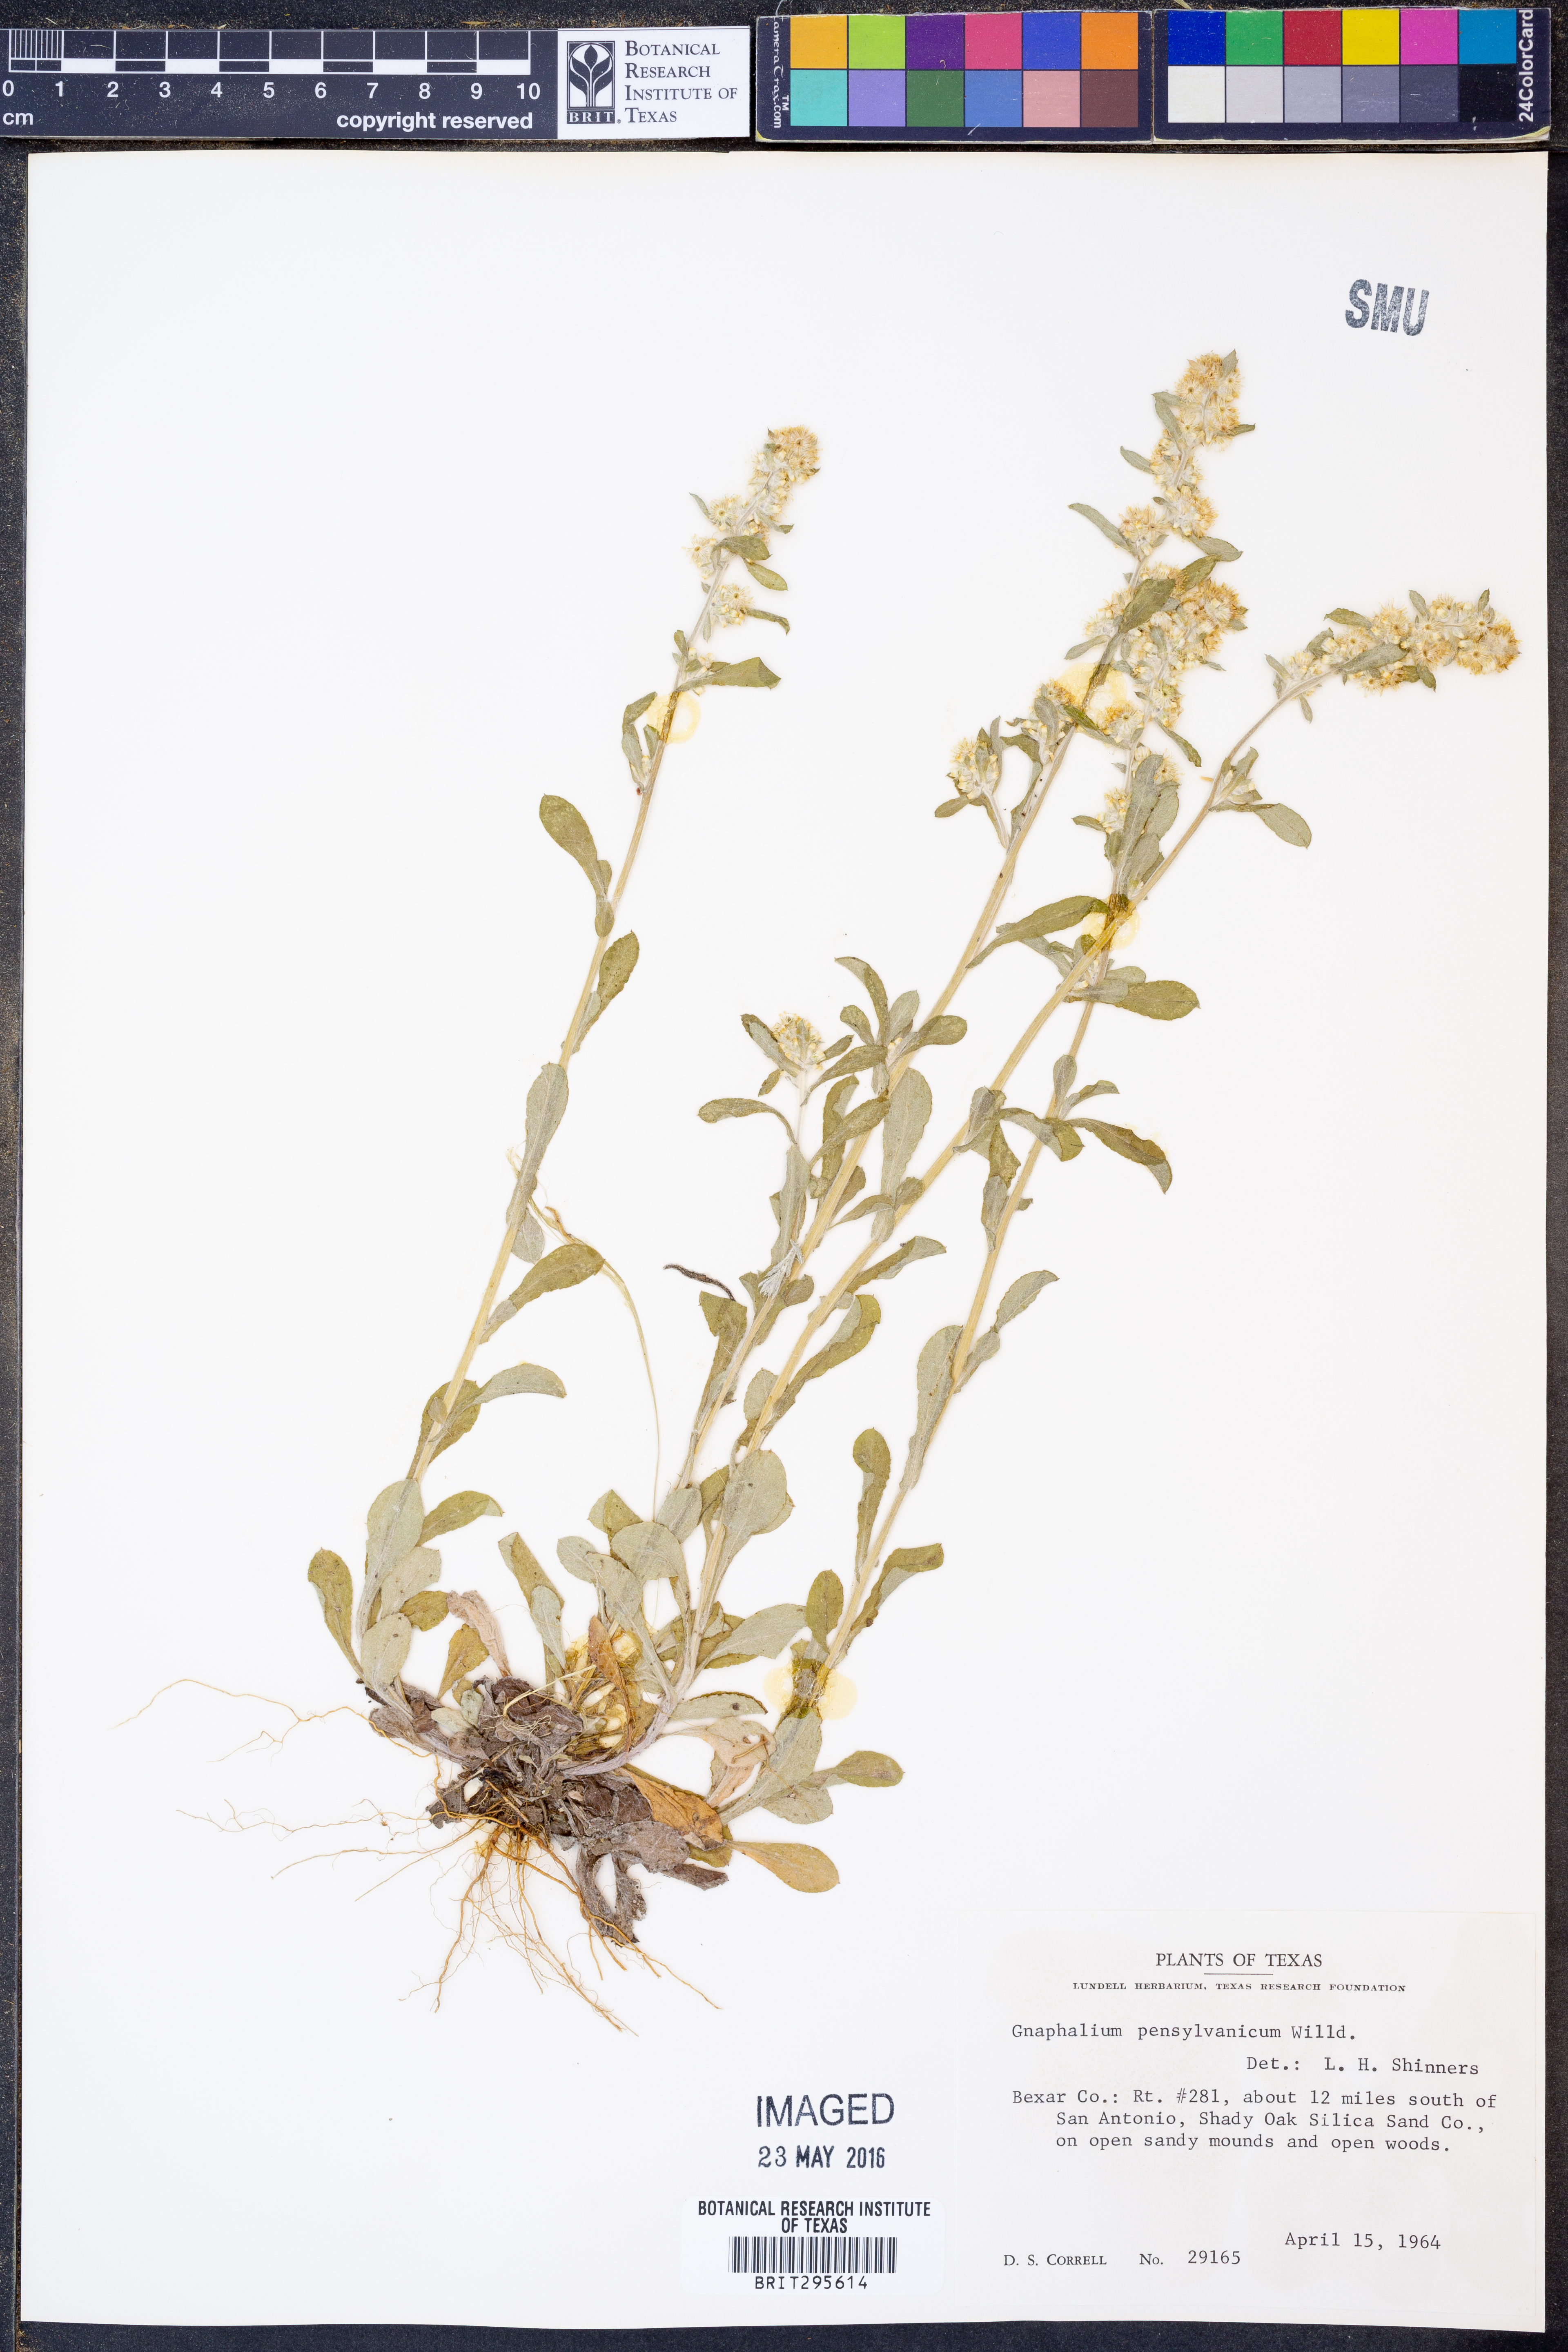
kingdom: Plantae
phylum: Tracheophyta
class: Magnoliopsida
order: Asterales
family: Asteraceae
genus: Gamochaeta
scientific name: Gamochaeta pensylvanica
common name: Pennsylvania everlasting
